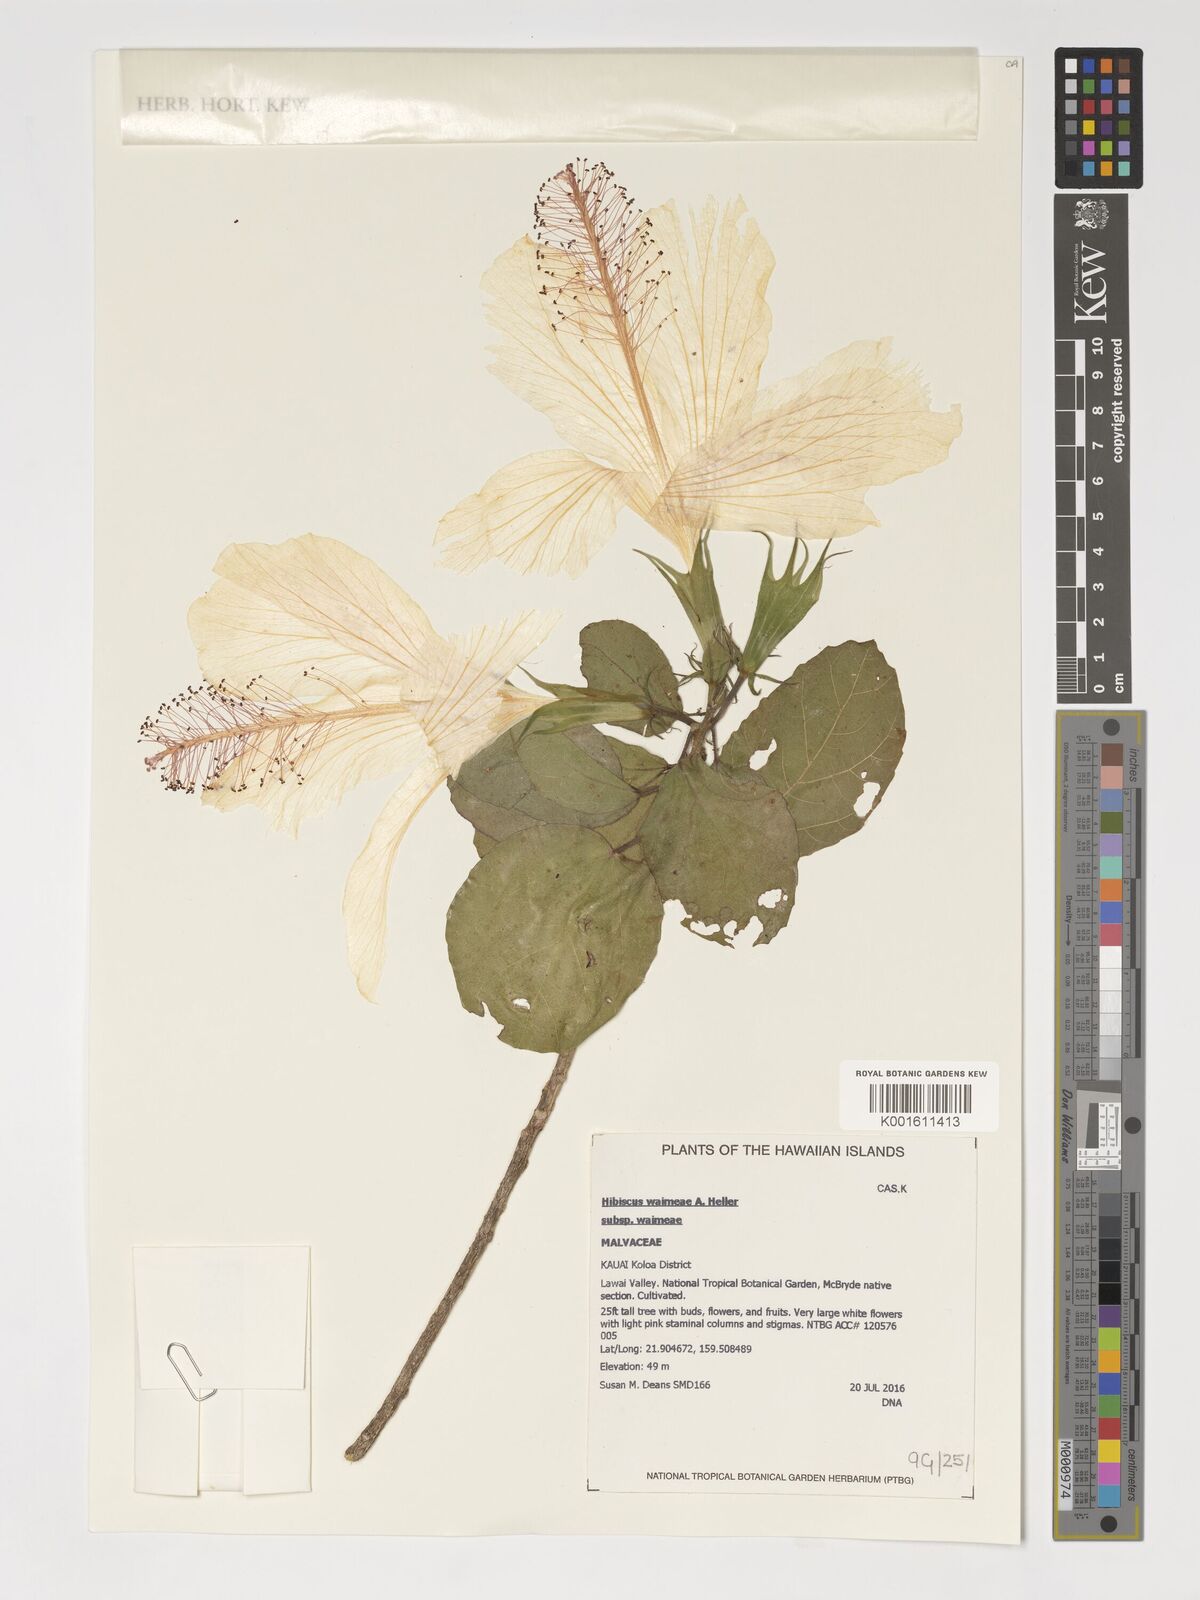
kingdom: Plantae
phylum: Tracheophyta
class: Magnoliopsida
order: Malvales
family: Malvaceae
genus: Hibiscus
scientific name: Hibiscus waimeae
